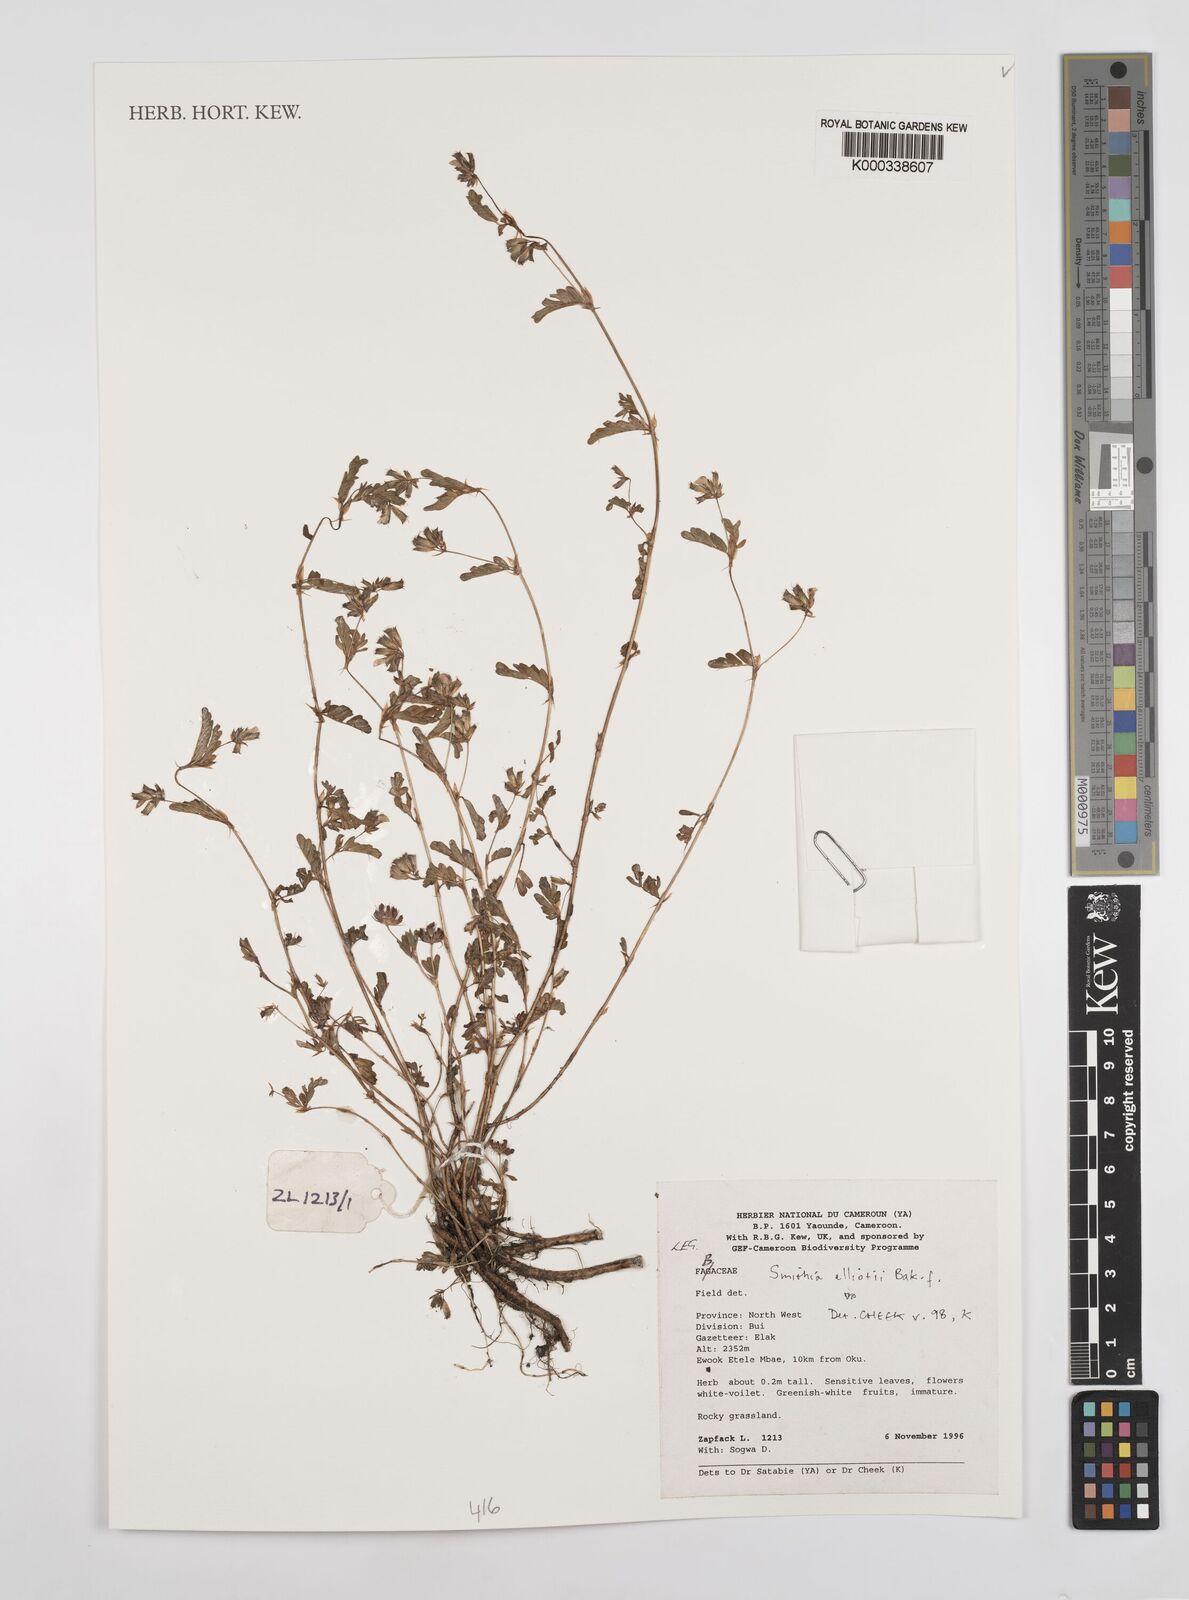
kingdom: Plantae
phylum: Tracheophyta
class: Magnoliopsida
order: Fabales
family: Fabaceae
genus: Smithia
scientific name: Smithia elliotii
